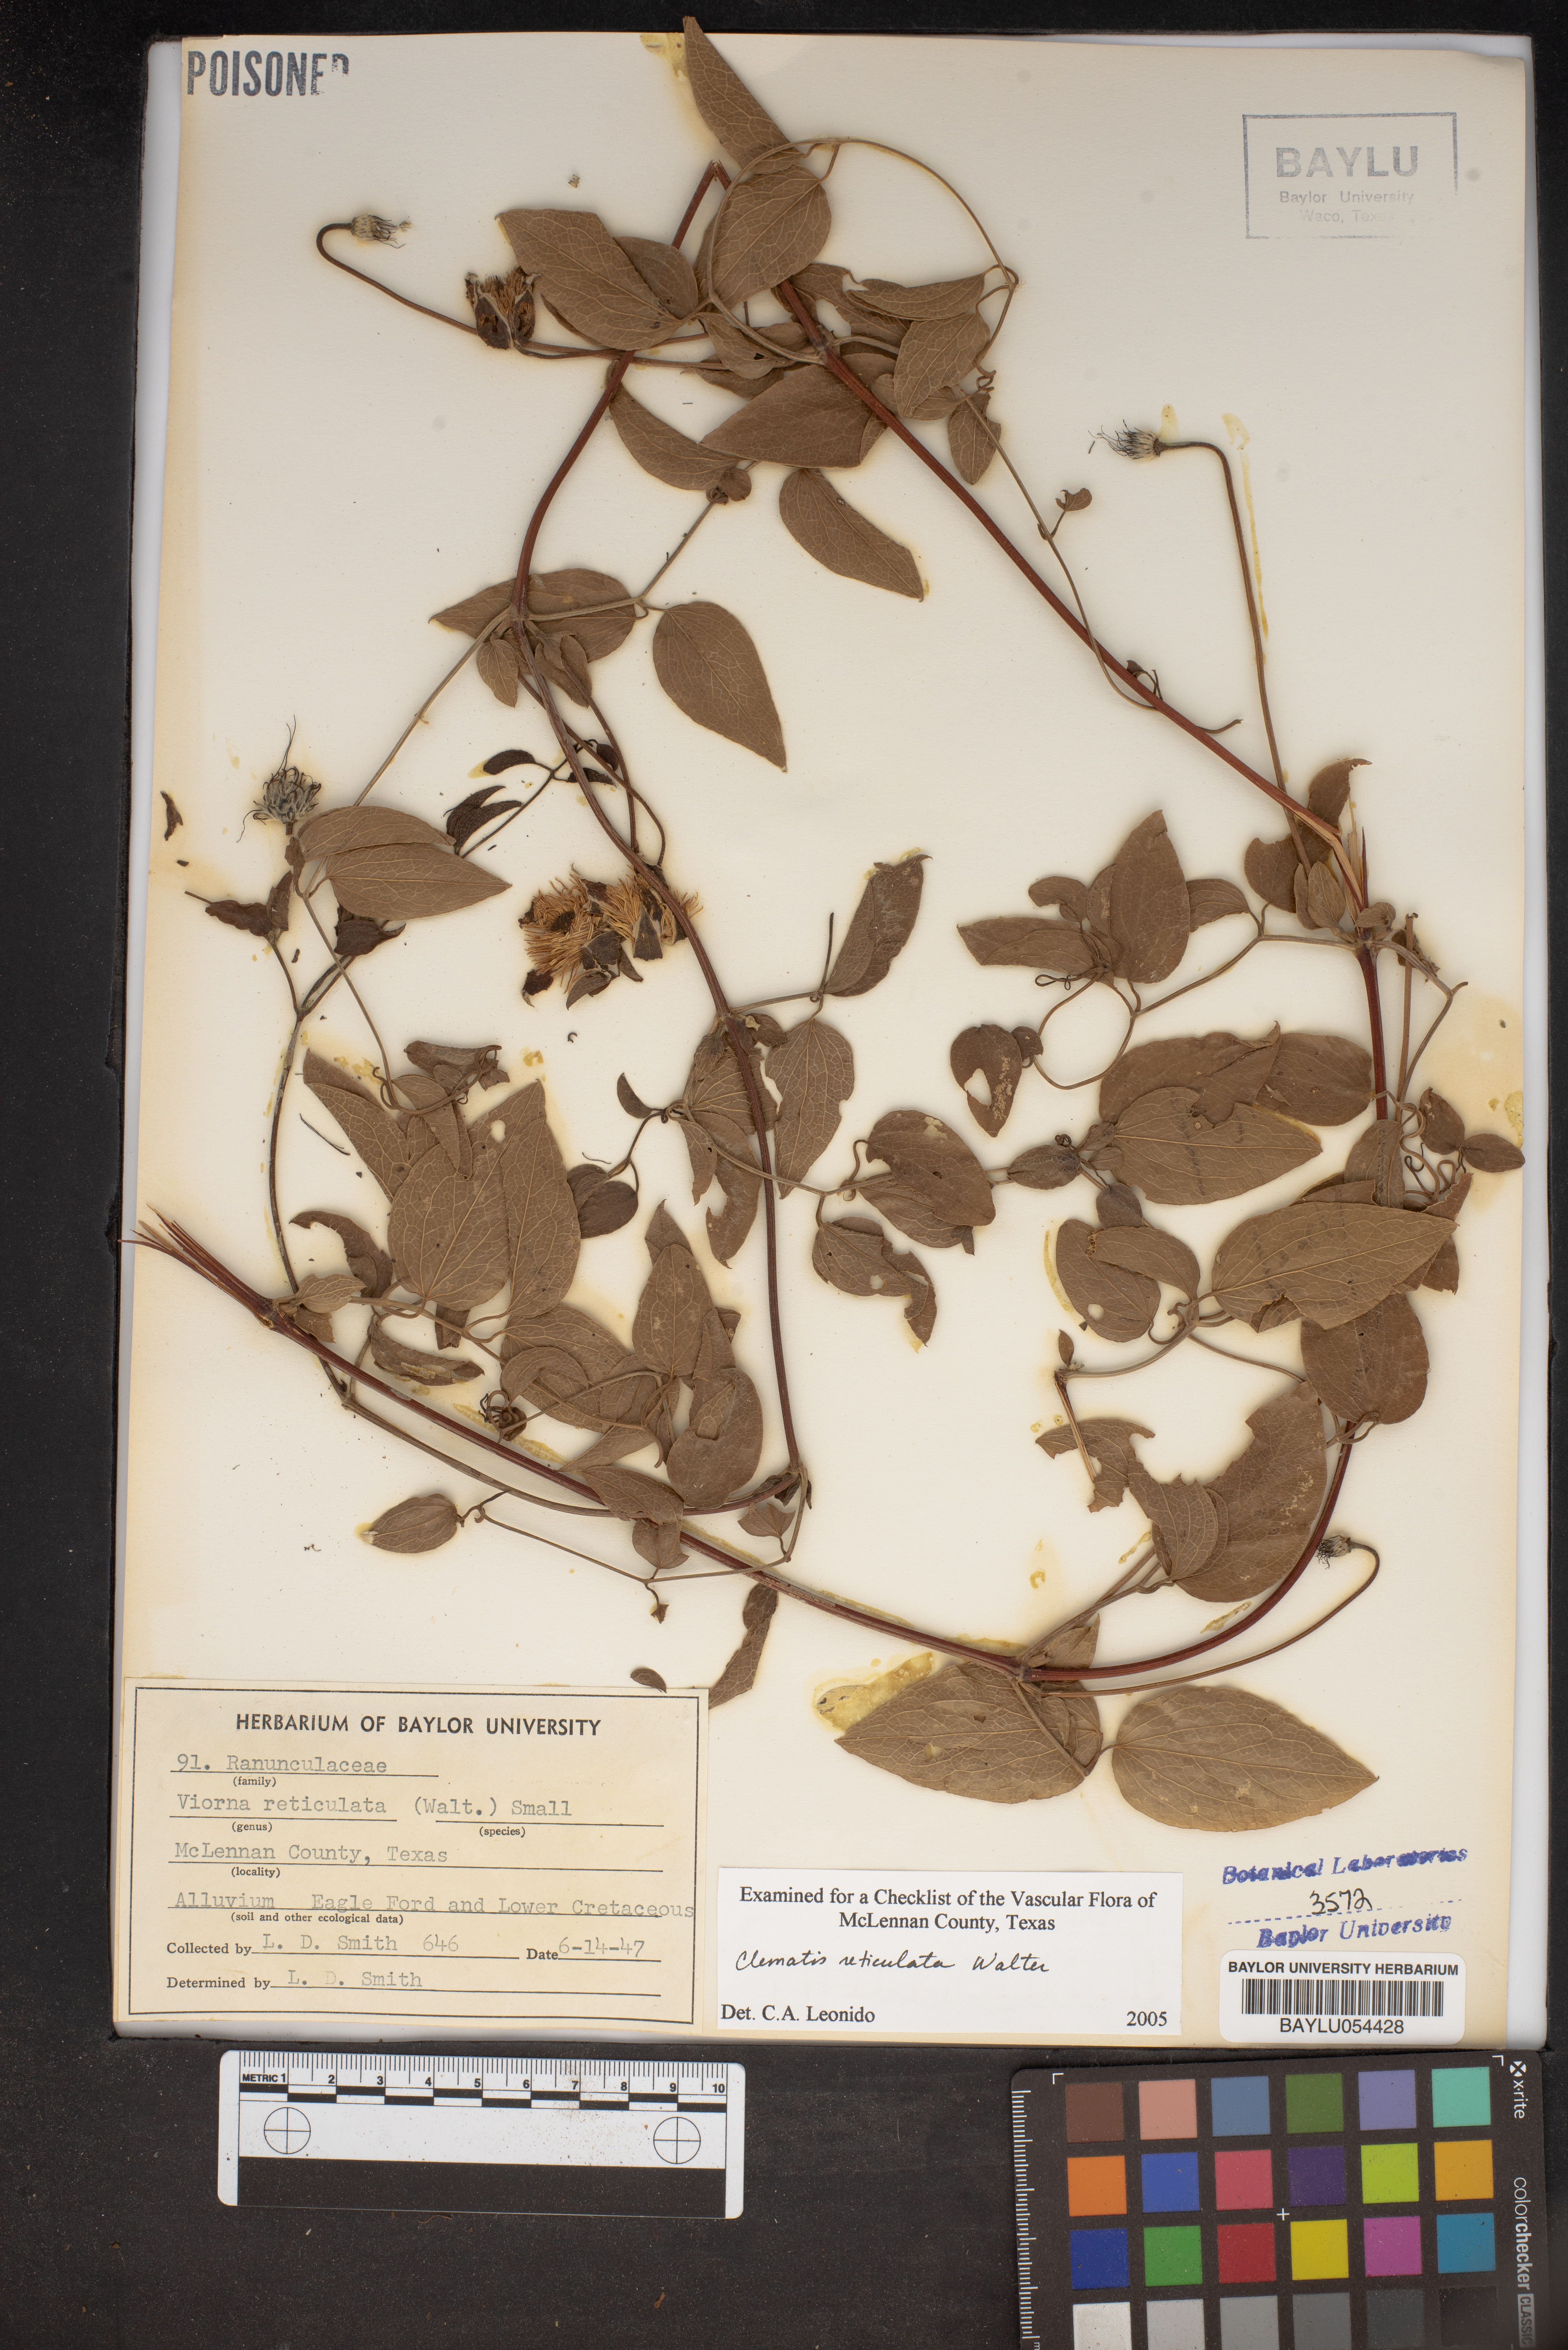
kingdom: Plantae
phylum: Tracheophyta
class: Magnoliopsida
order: Ranunculales
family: Ranunculaceae
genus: Clematis
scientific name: Clematis reticulata
